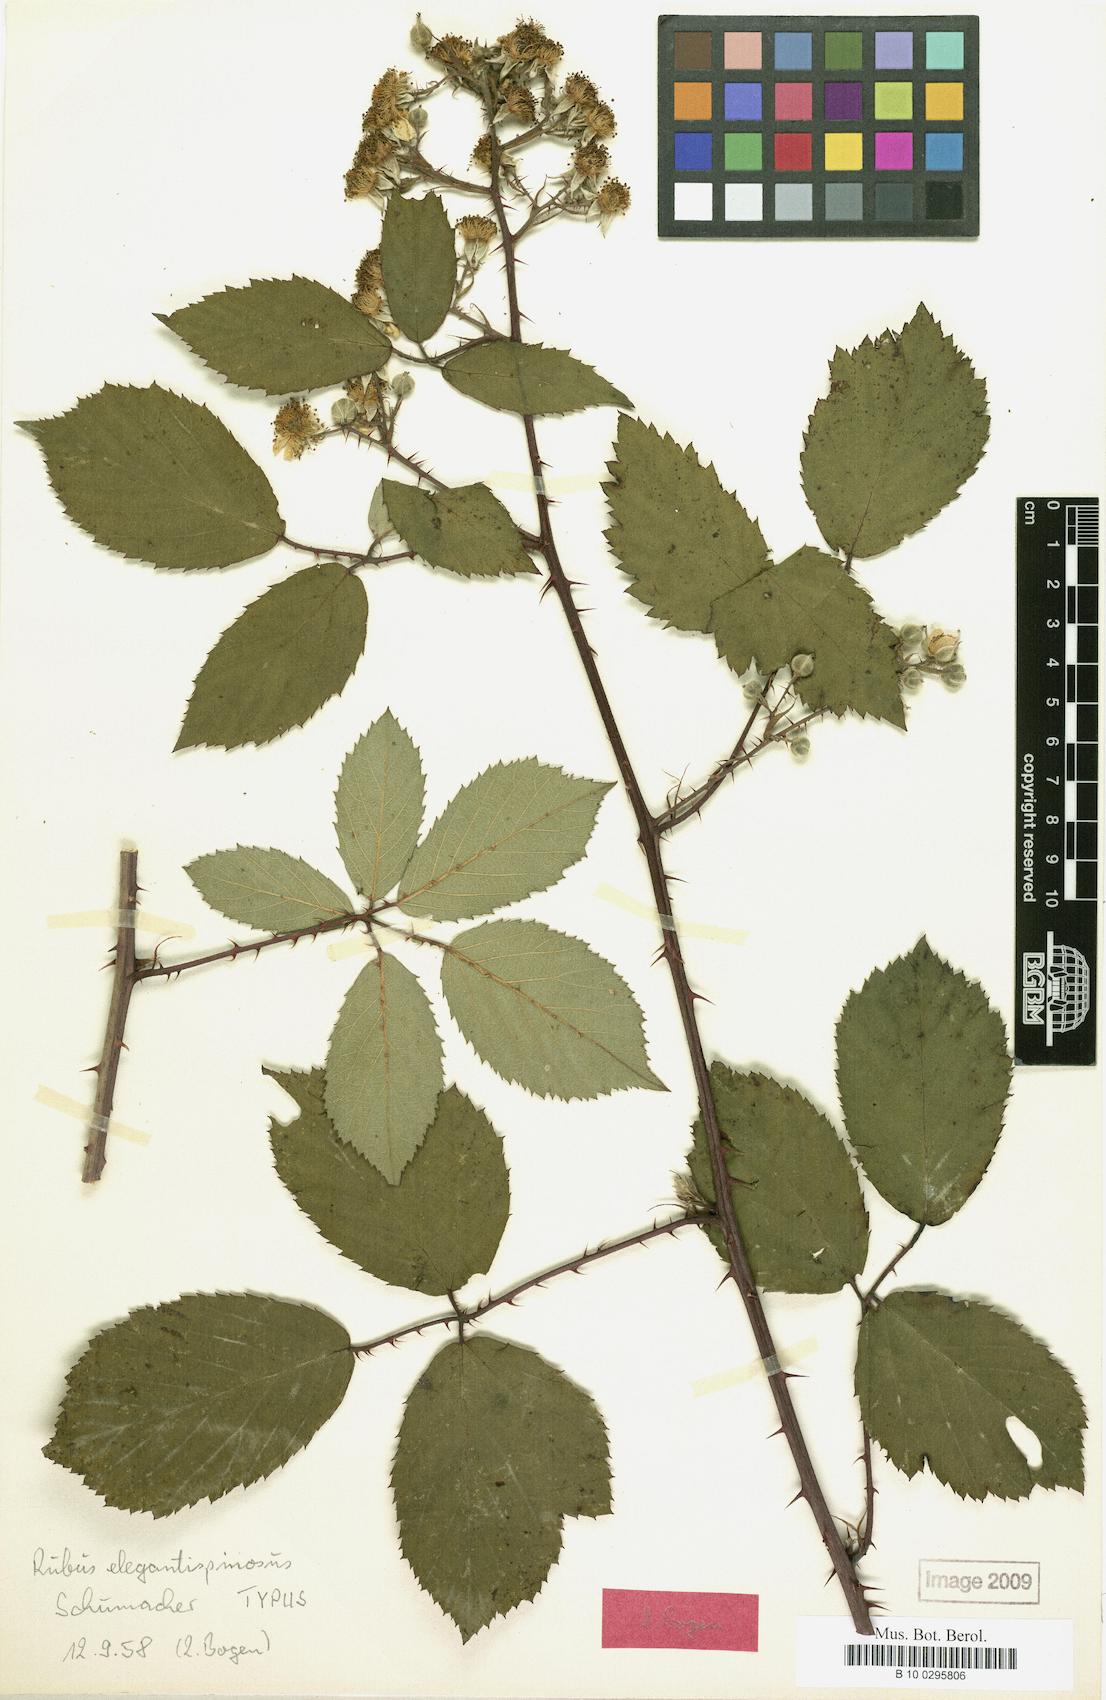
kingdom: Plantae
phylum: Tracheophyta
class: Magnoliopsida
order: Rosales
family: Rosaceae
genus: Rubus
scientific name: Rubus elegantispinosus
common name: Slender spined bramble
